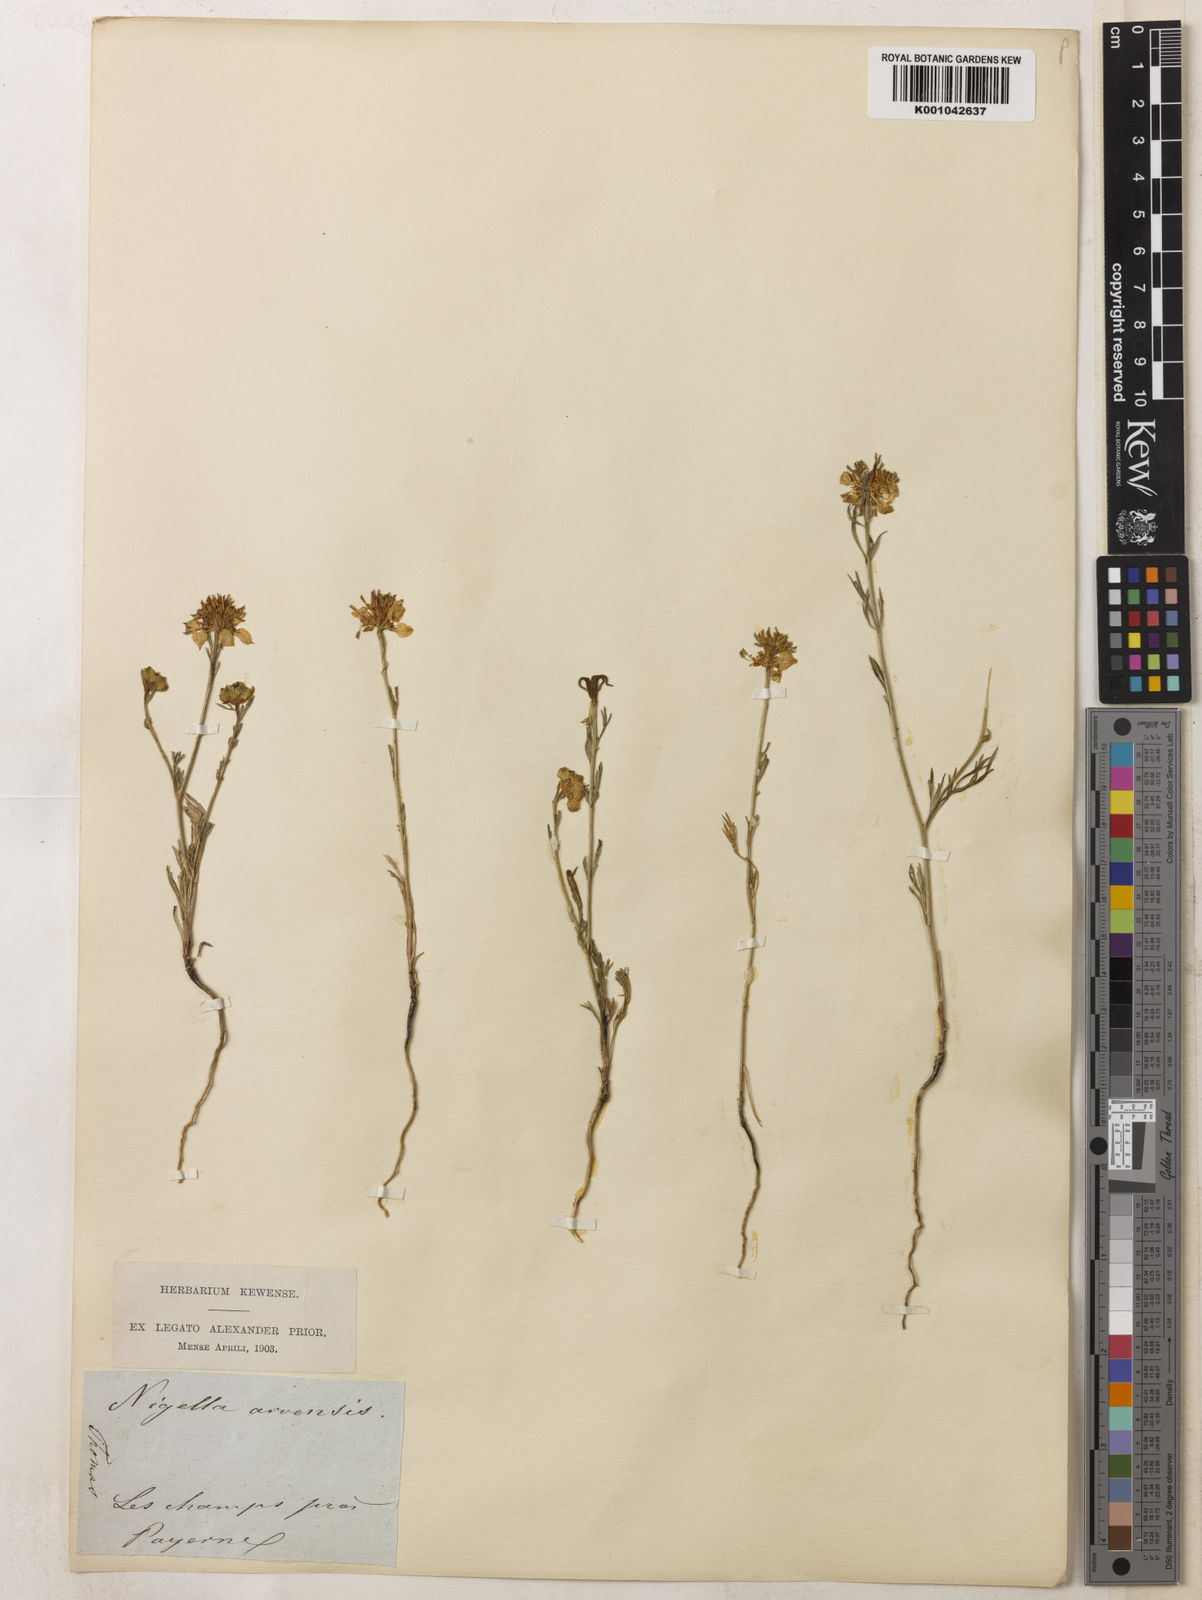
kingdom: Plantae
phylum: Tracheophyta
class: Magnoliopsida
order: Ranunculales
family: Ranunculaceae
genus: Nigella
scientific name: Nigella arvensis
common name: Wild fennel-flower
